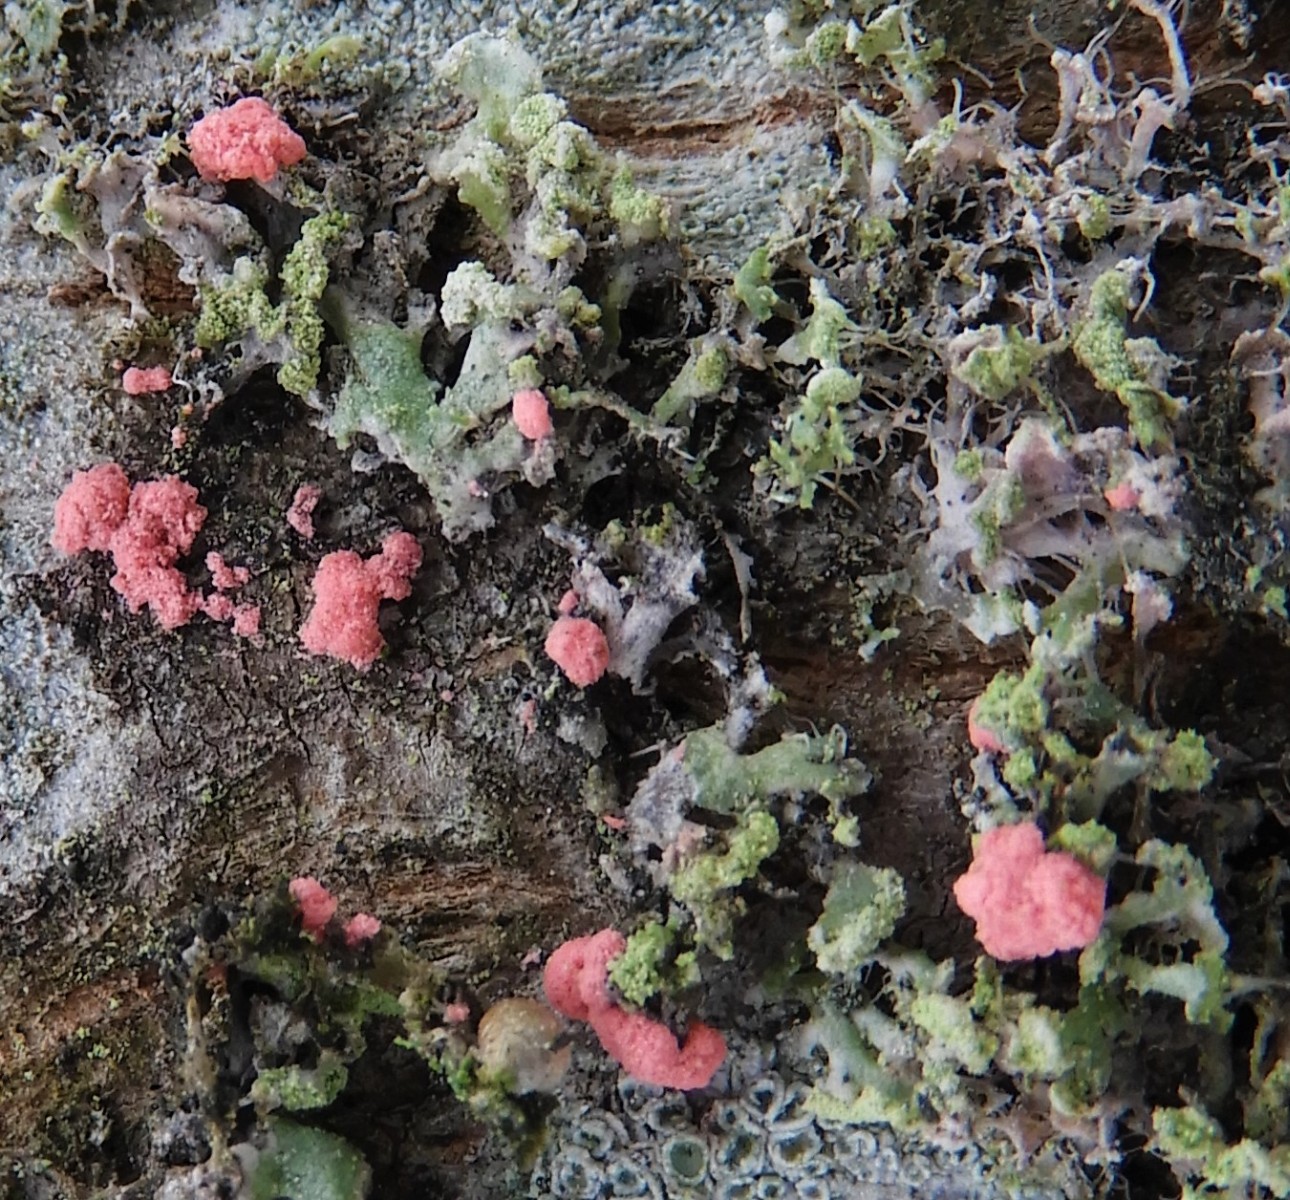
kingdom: Fungi
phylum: Ascomycota
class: Sordariomycetes
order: Hypocreales
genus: Illosporiopsis
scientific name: Illosporiopsis christiansenii
